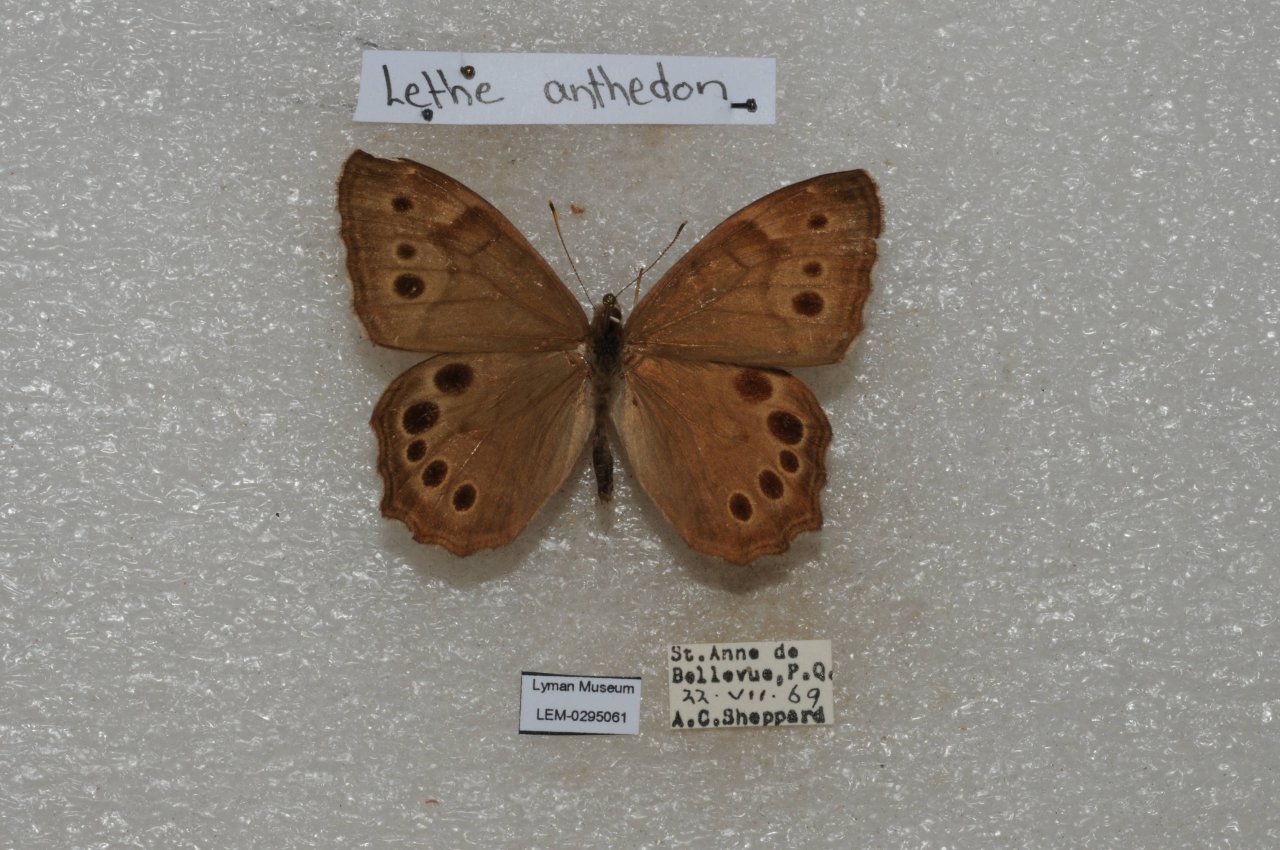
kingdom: Animalia
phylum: Arthropoda
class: Insecta
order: Lepidoptera
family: Nymphalidae
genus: Lethe
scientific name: Lethe anthedon
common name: Northern Pearly-Eye
